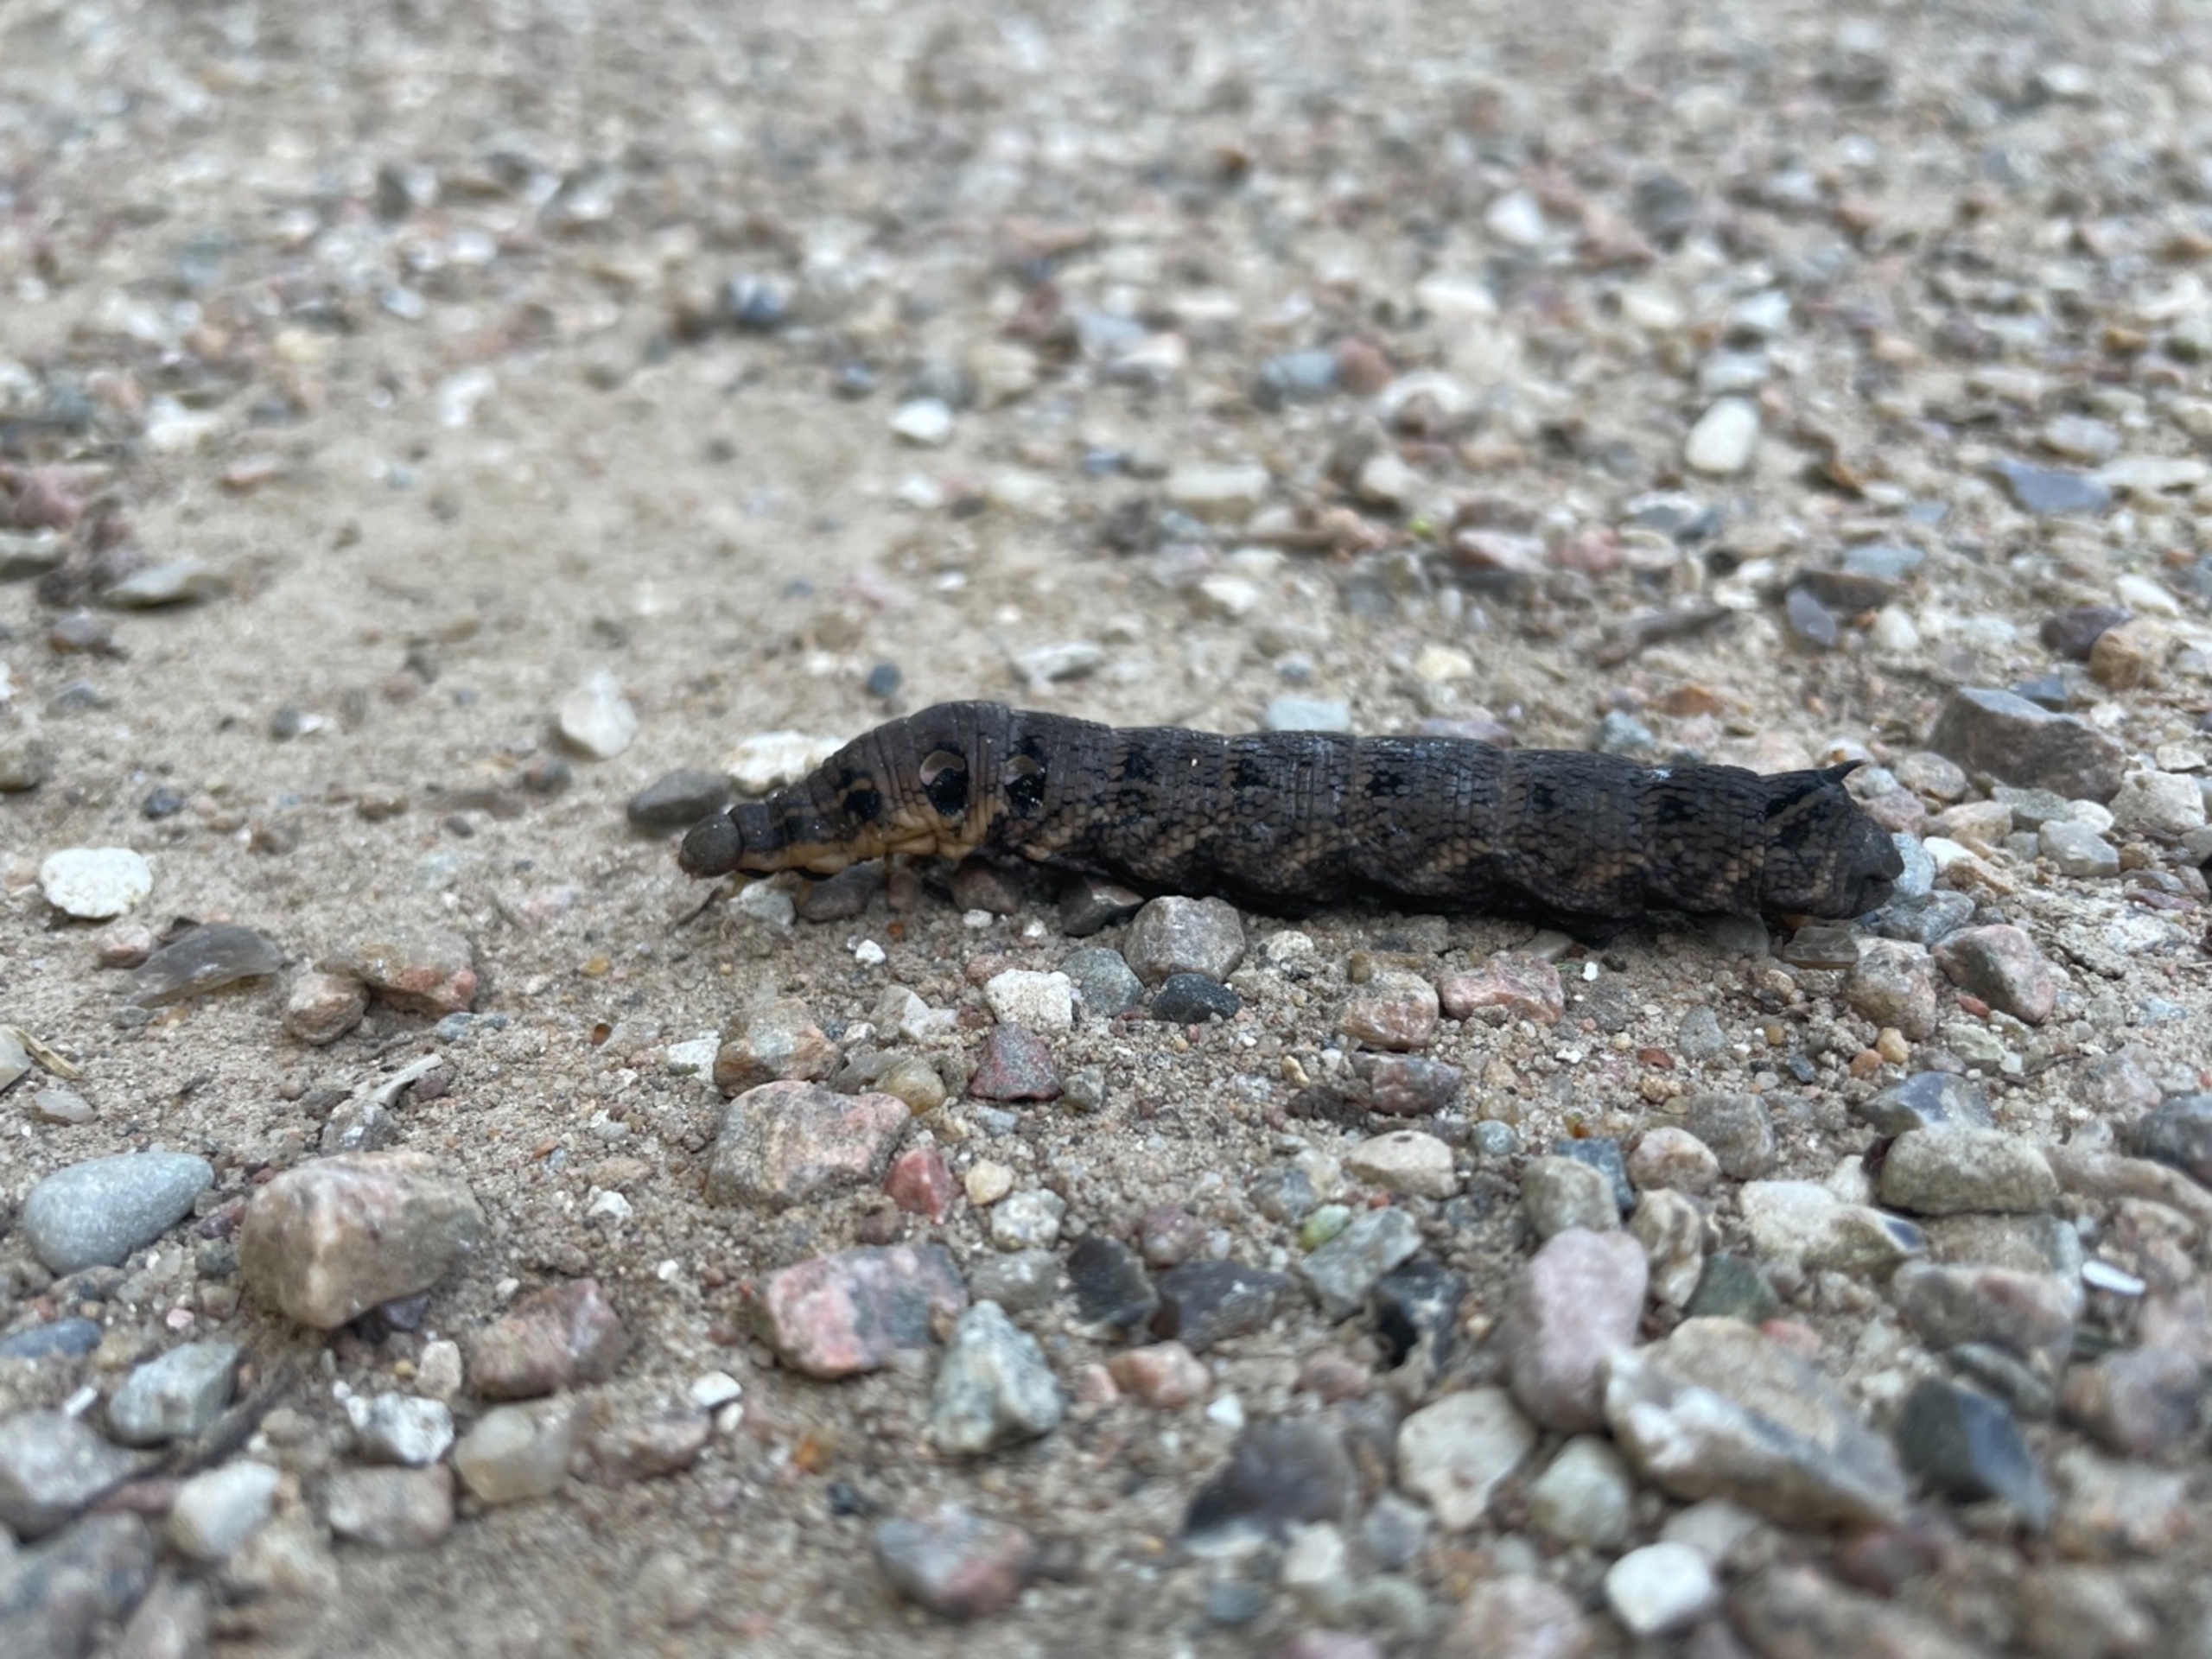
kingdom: Animalia
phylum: Arthropoda
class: Insecta
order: Lepidoptera
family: Sphingidae
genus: Deilephila
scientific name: Deilephila elpenor
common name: Dueurtsværmer
